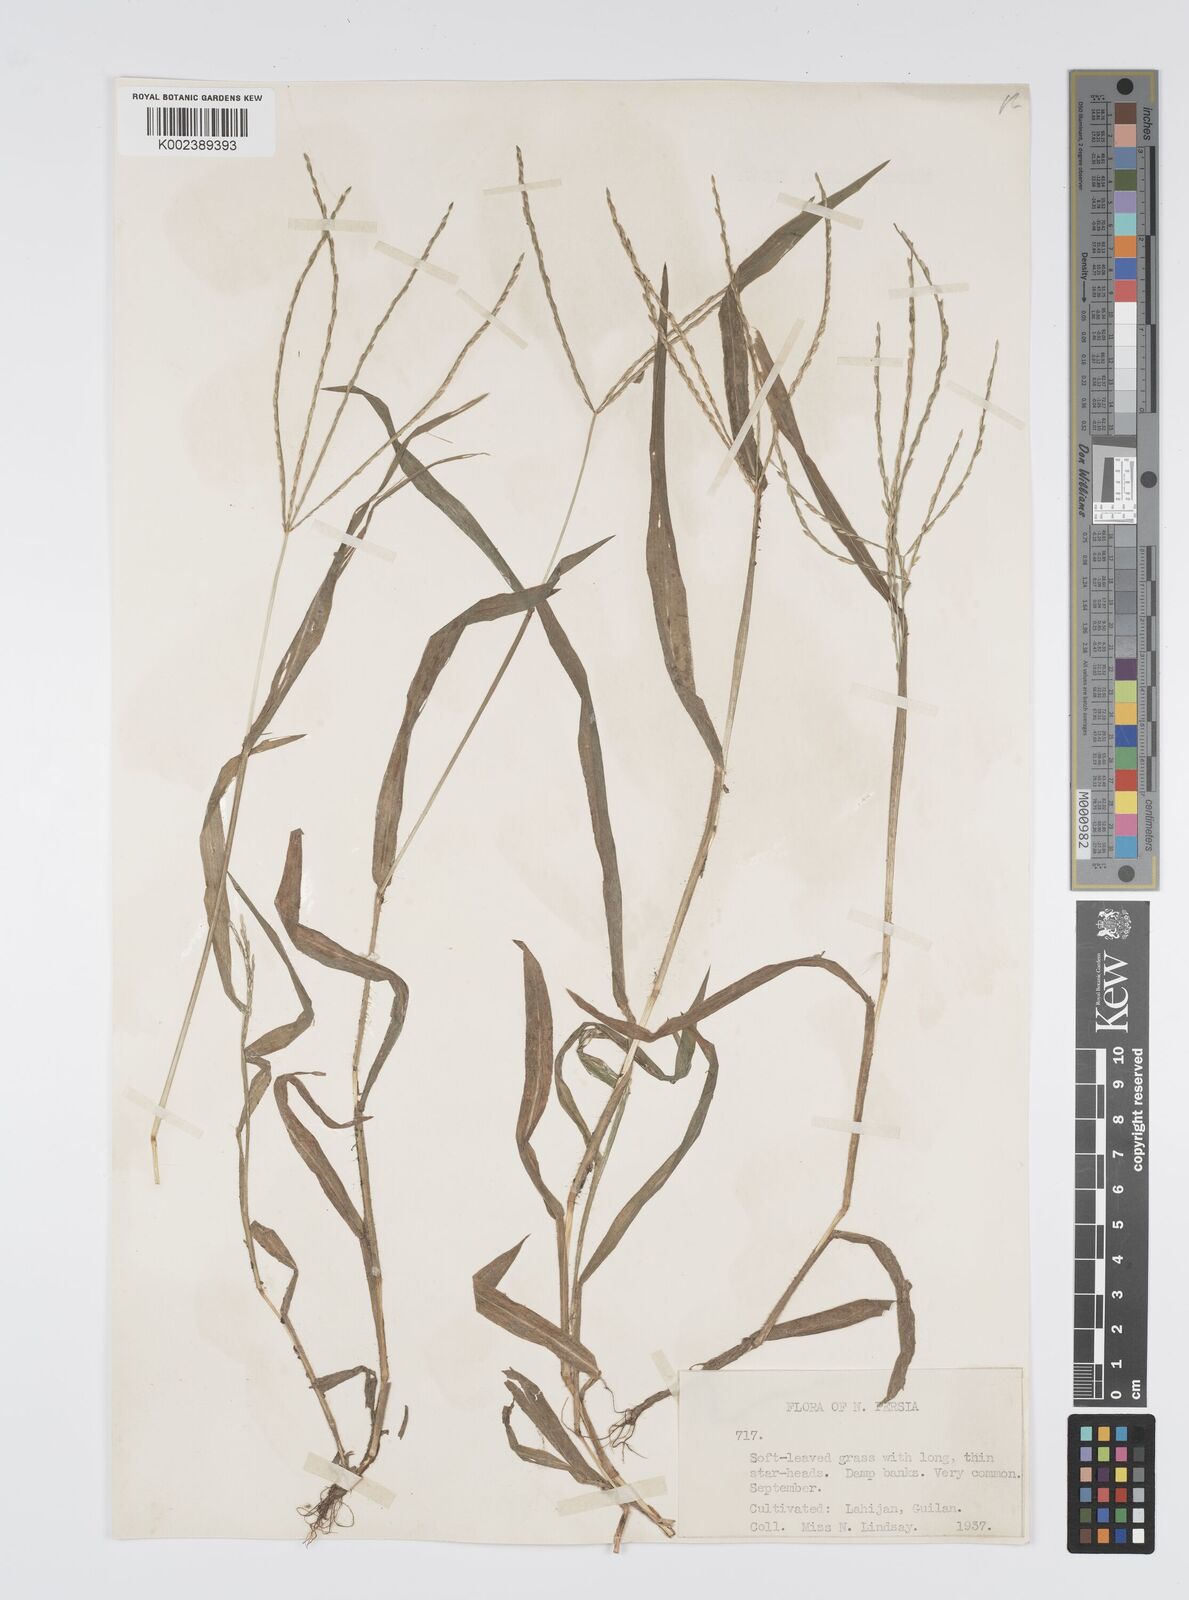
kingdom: Plantae
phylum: Tracheophyta
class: Liliopsida
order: Poales
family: Poaceae
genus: Digitaria
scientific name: Digitaria sanguinalis
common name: Hairy crabgrass
